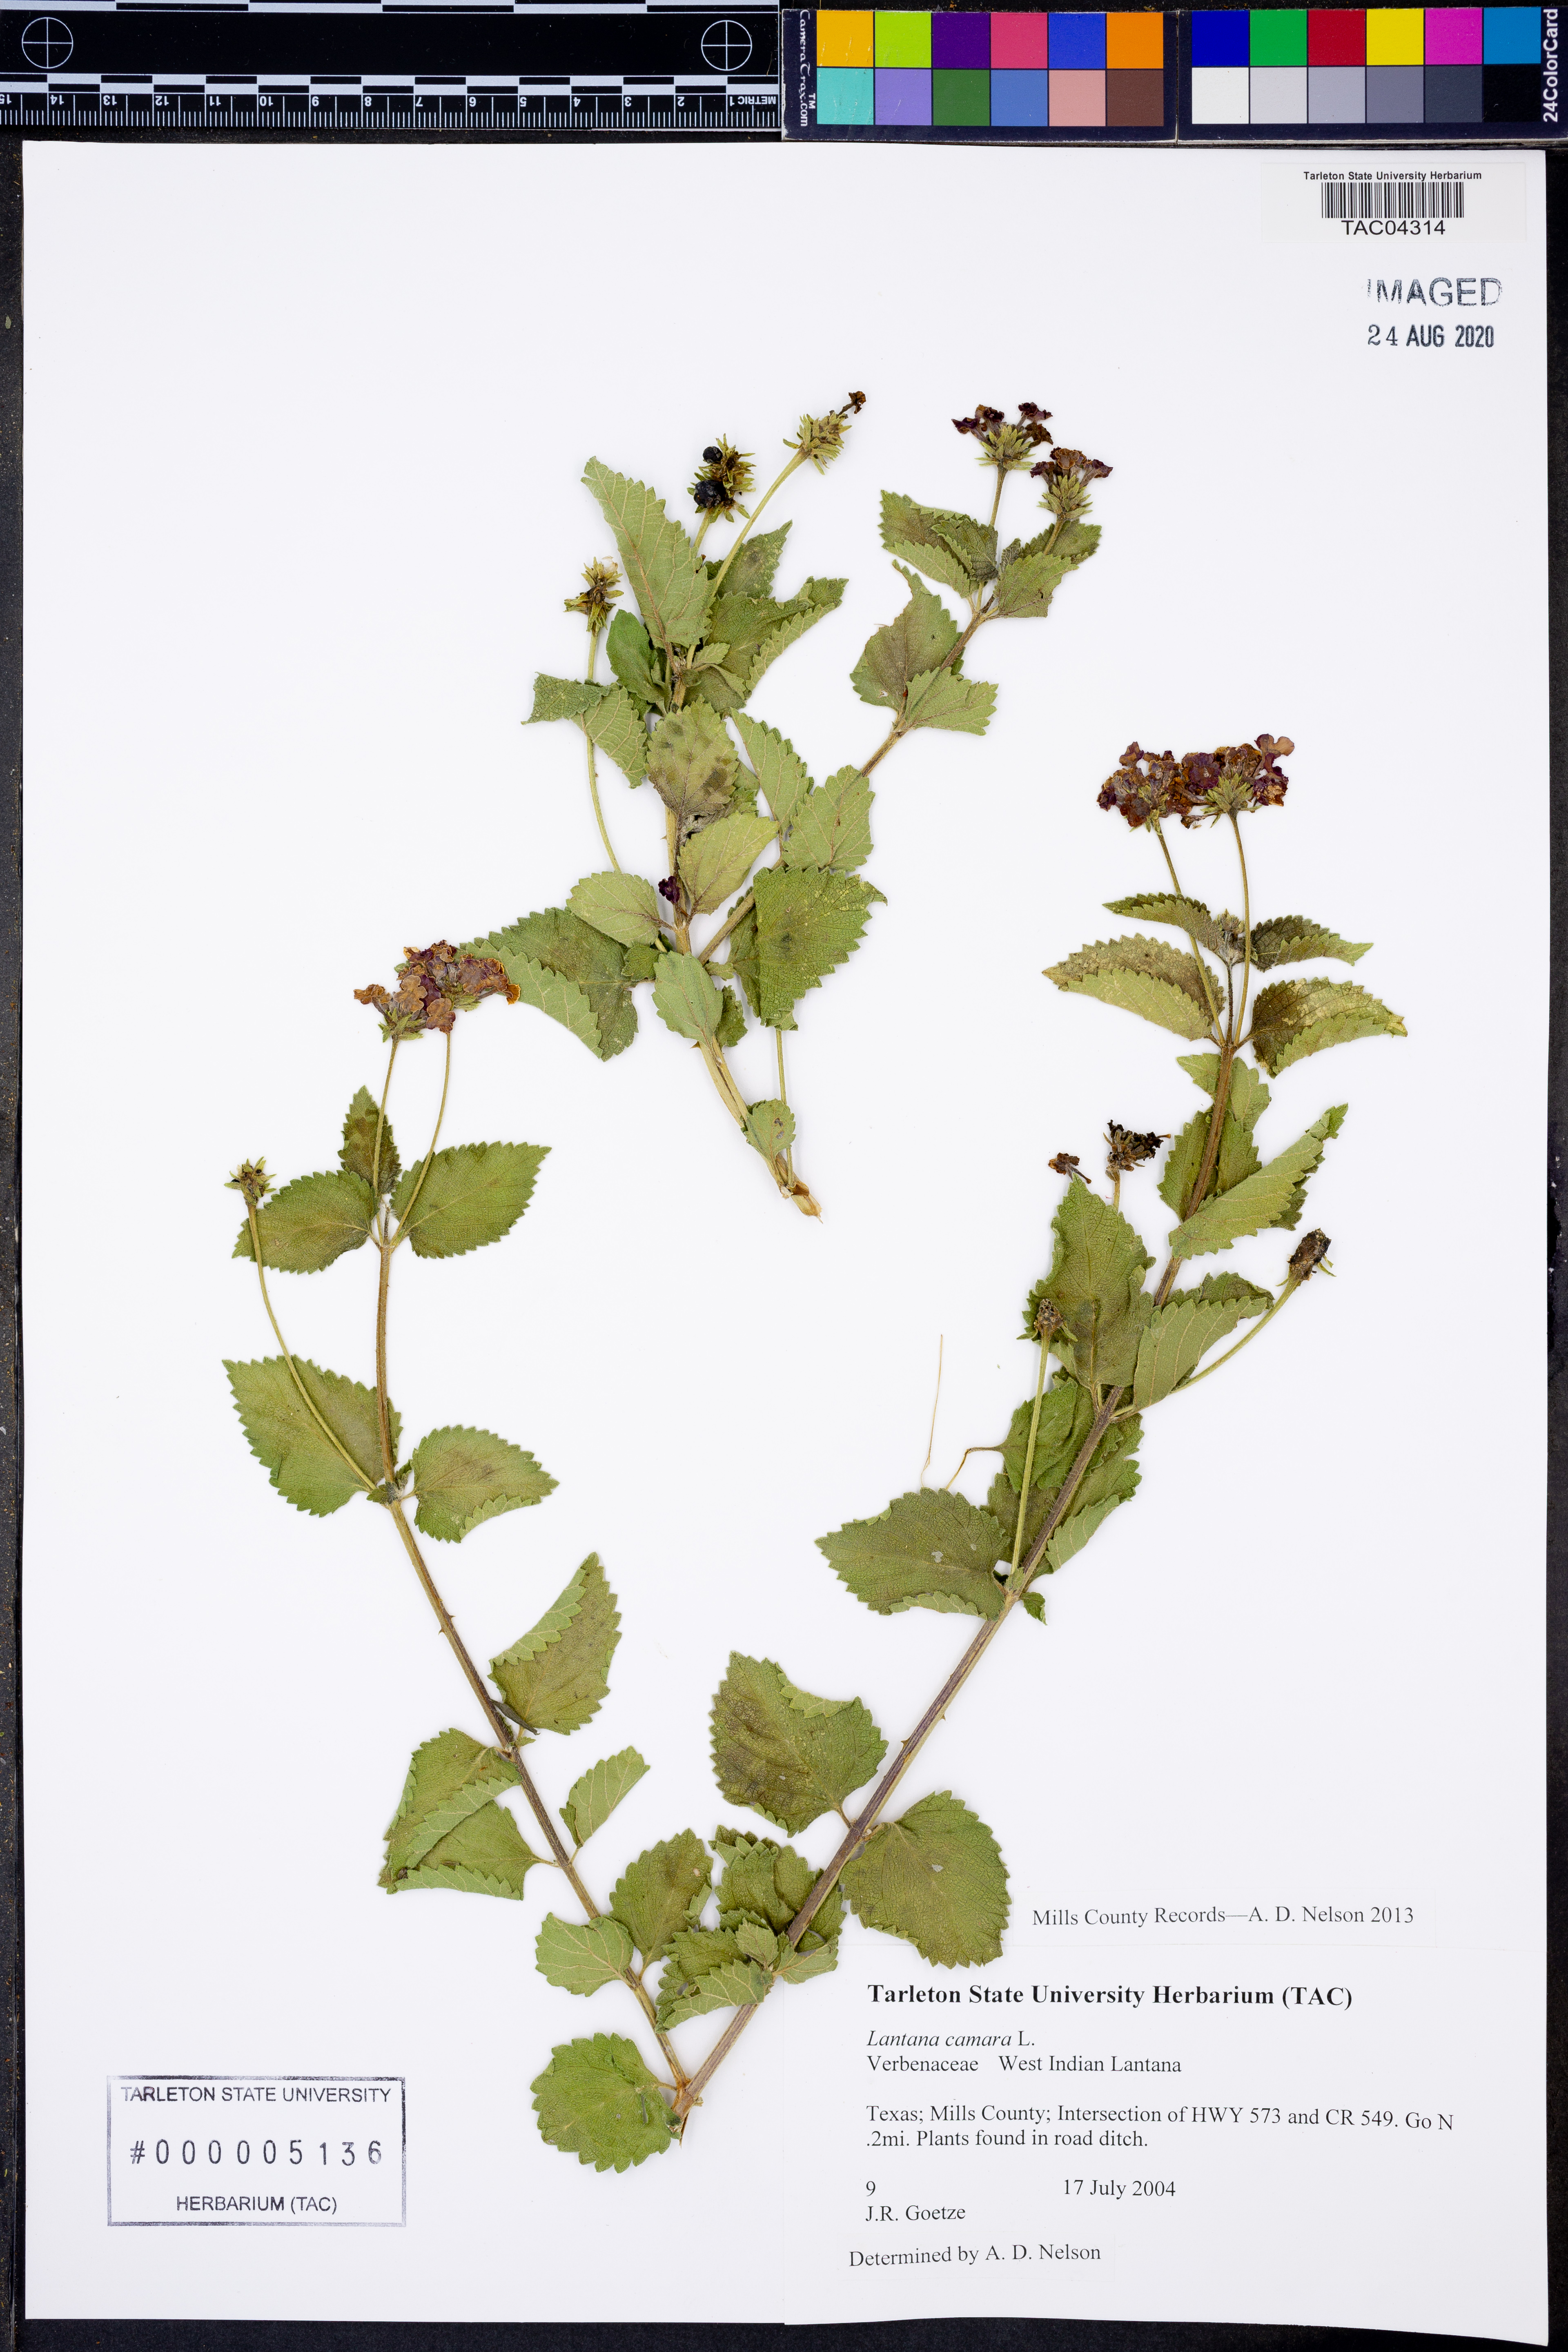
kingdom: Plantae
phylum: Tracheophyta
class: Magnoliopsida
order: Lamiales
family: Verbenaceae
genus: Lantana
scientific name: Lantana camara
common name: Lantana
